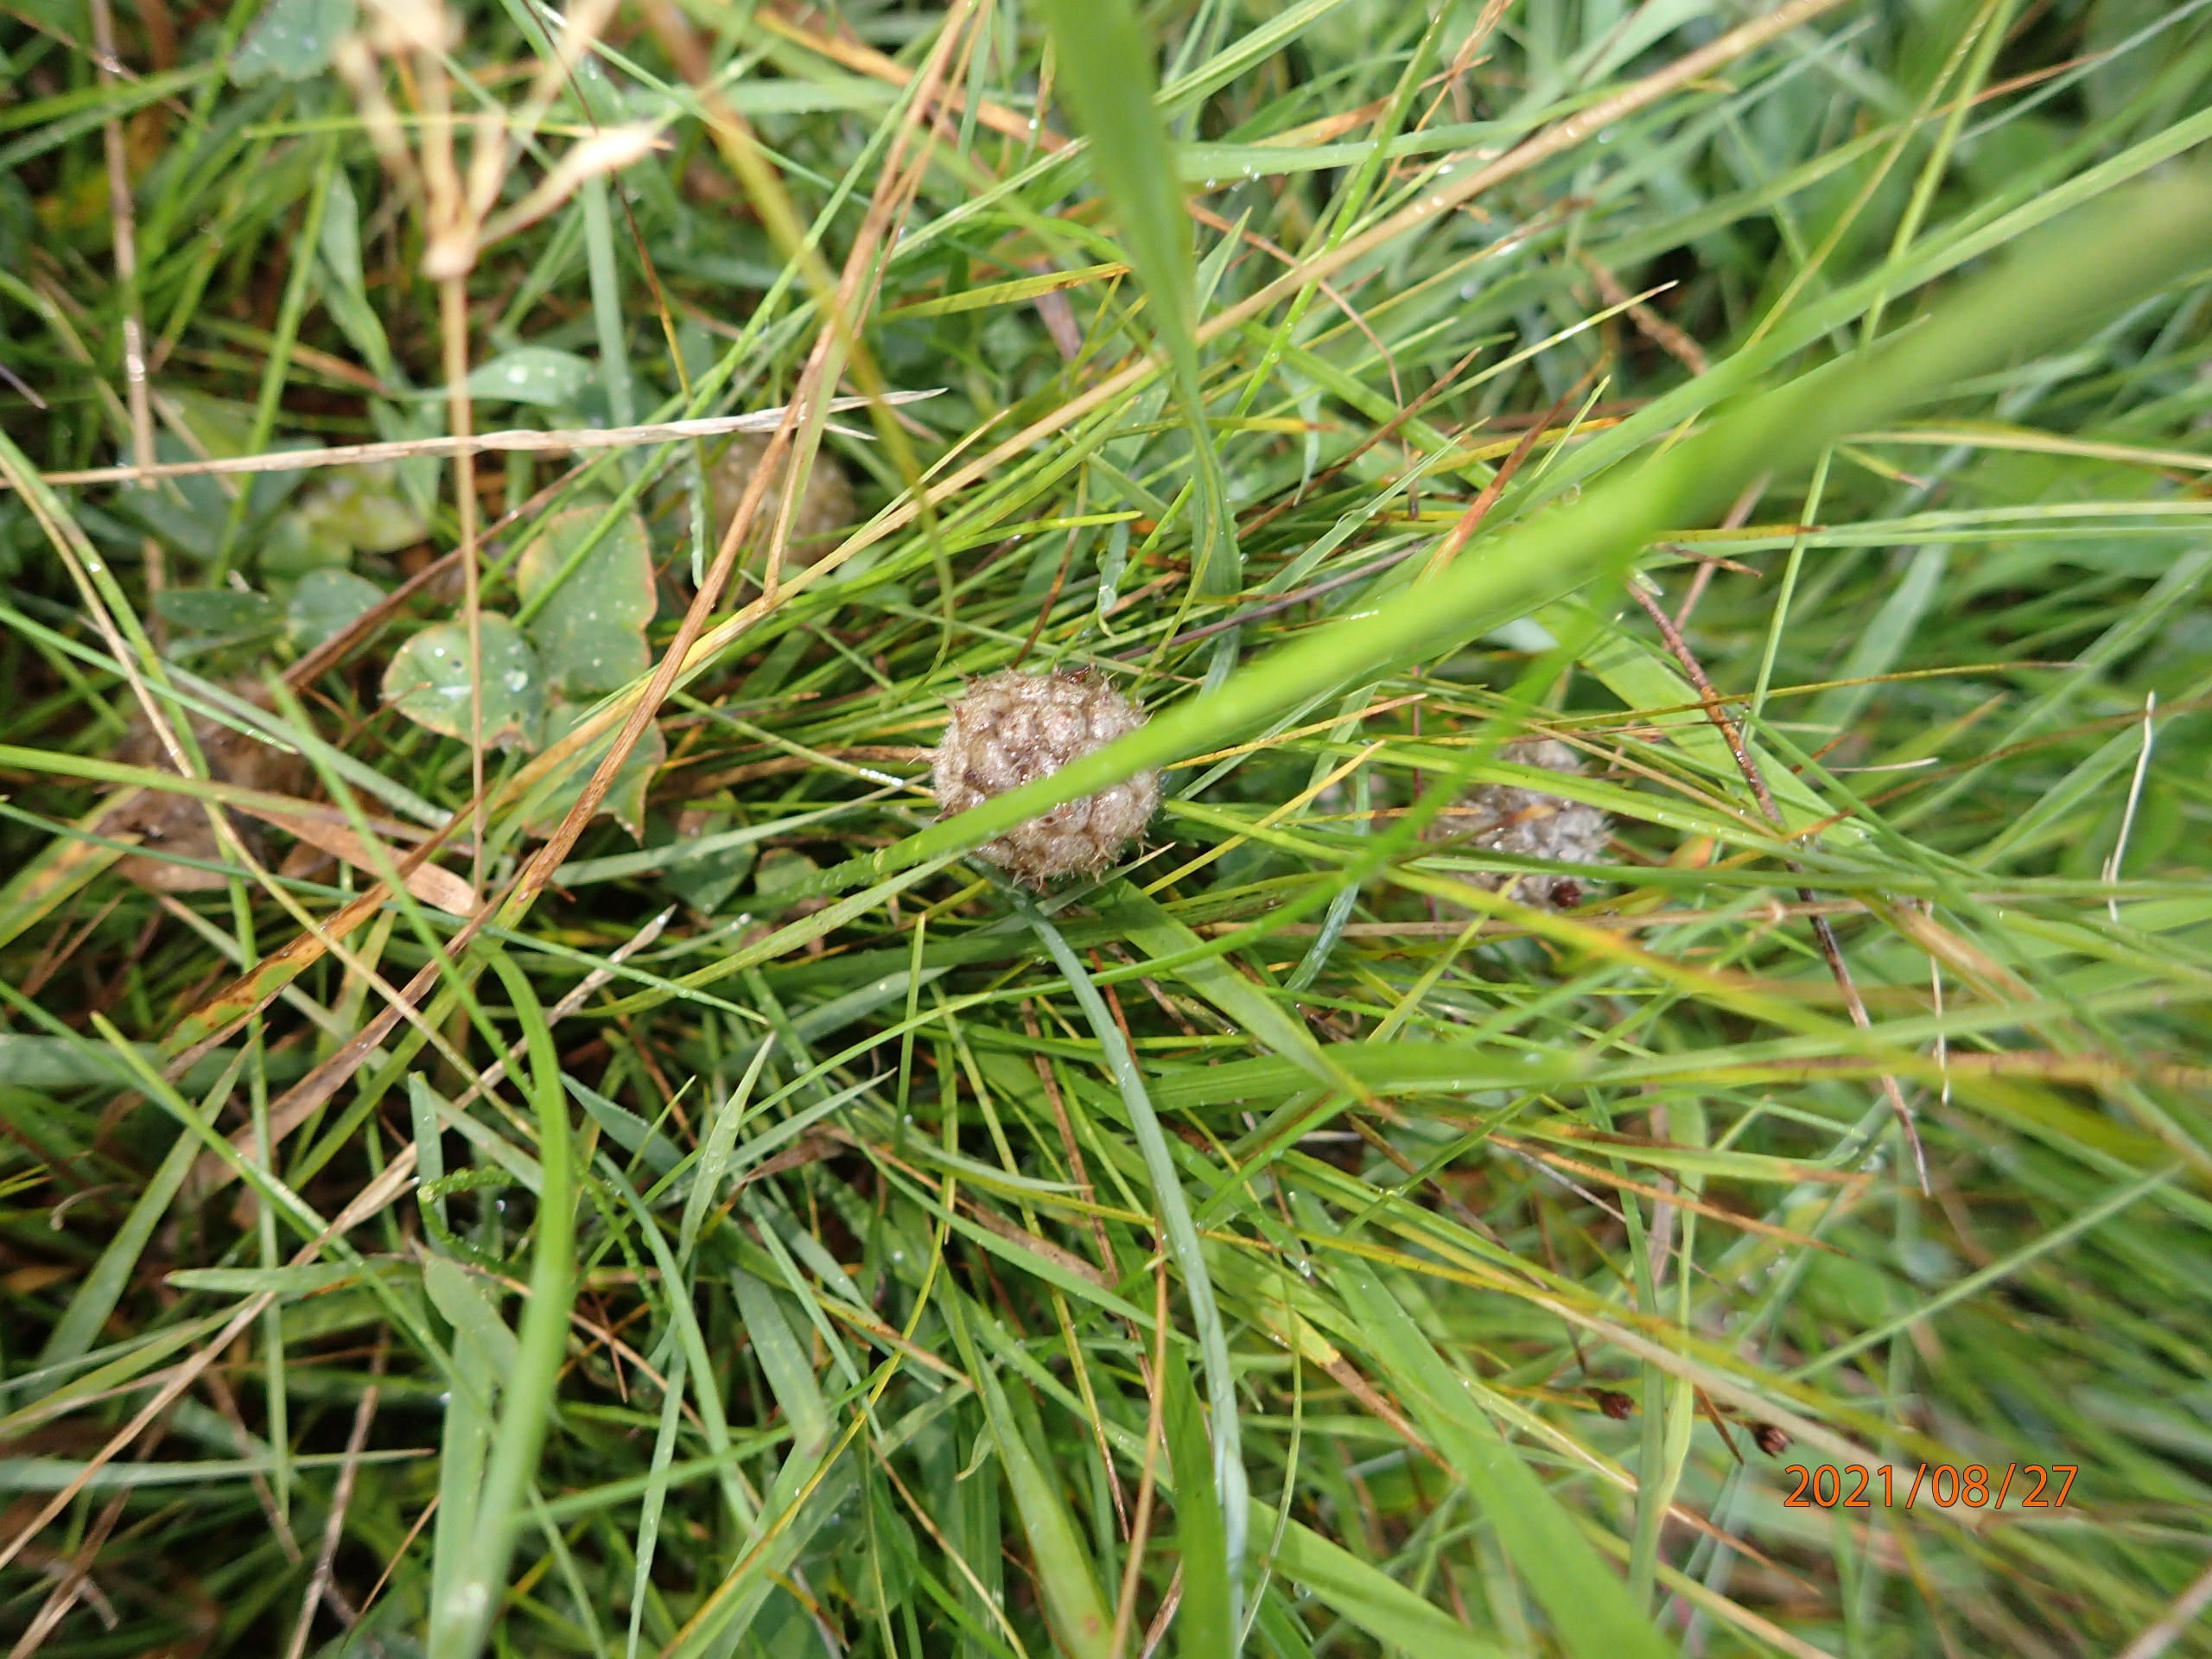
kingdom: Plantae
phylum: Tracheophyta
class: Magnoliopsida
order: Fabales
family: Fabaceae
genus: Trifolium
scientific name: Trifolium fragiferum
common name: Jordbær-kløver
